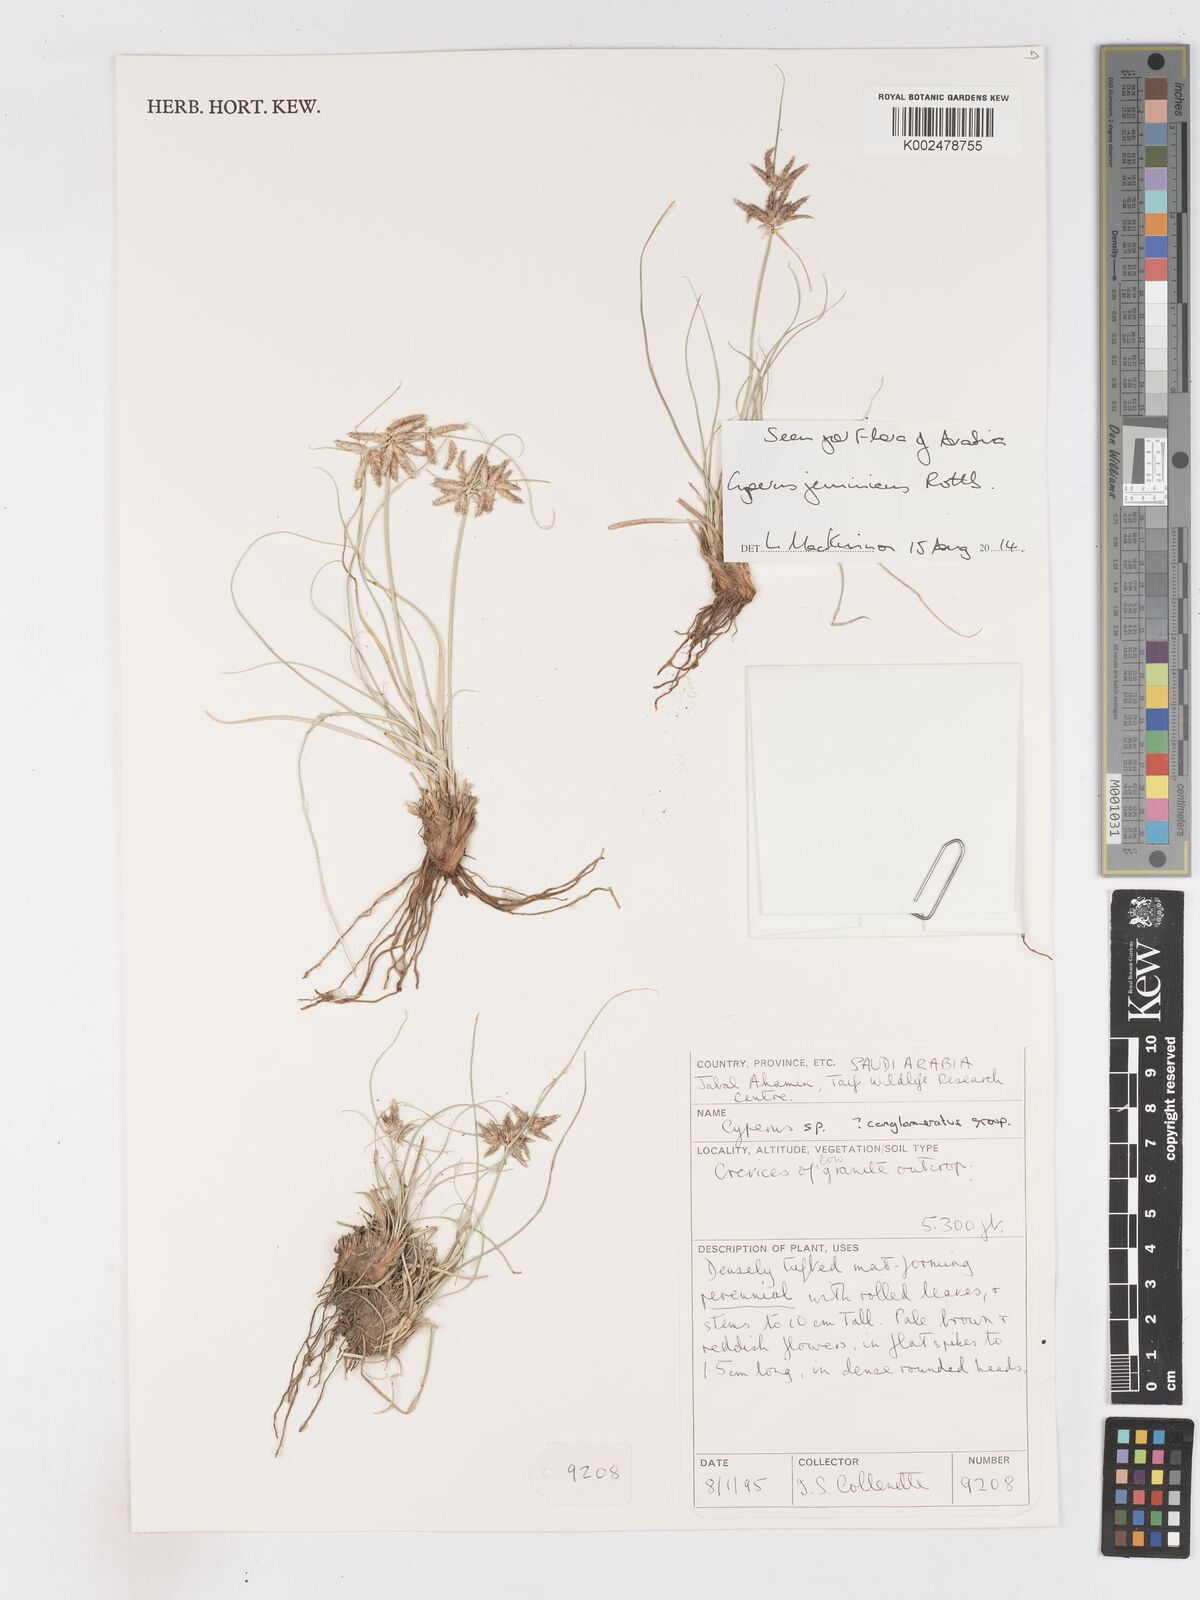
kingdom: Plantae
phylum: Tracheophyta
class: Liliopsida
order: Poales
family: Cyperaceae
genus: Cyperus
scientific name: Cyperus jeminicus
